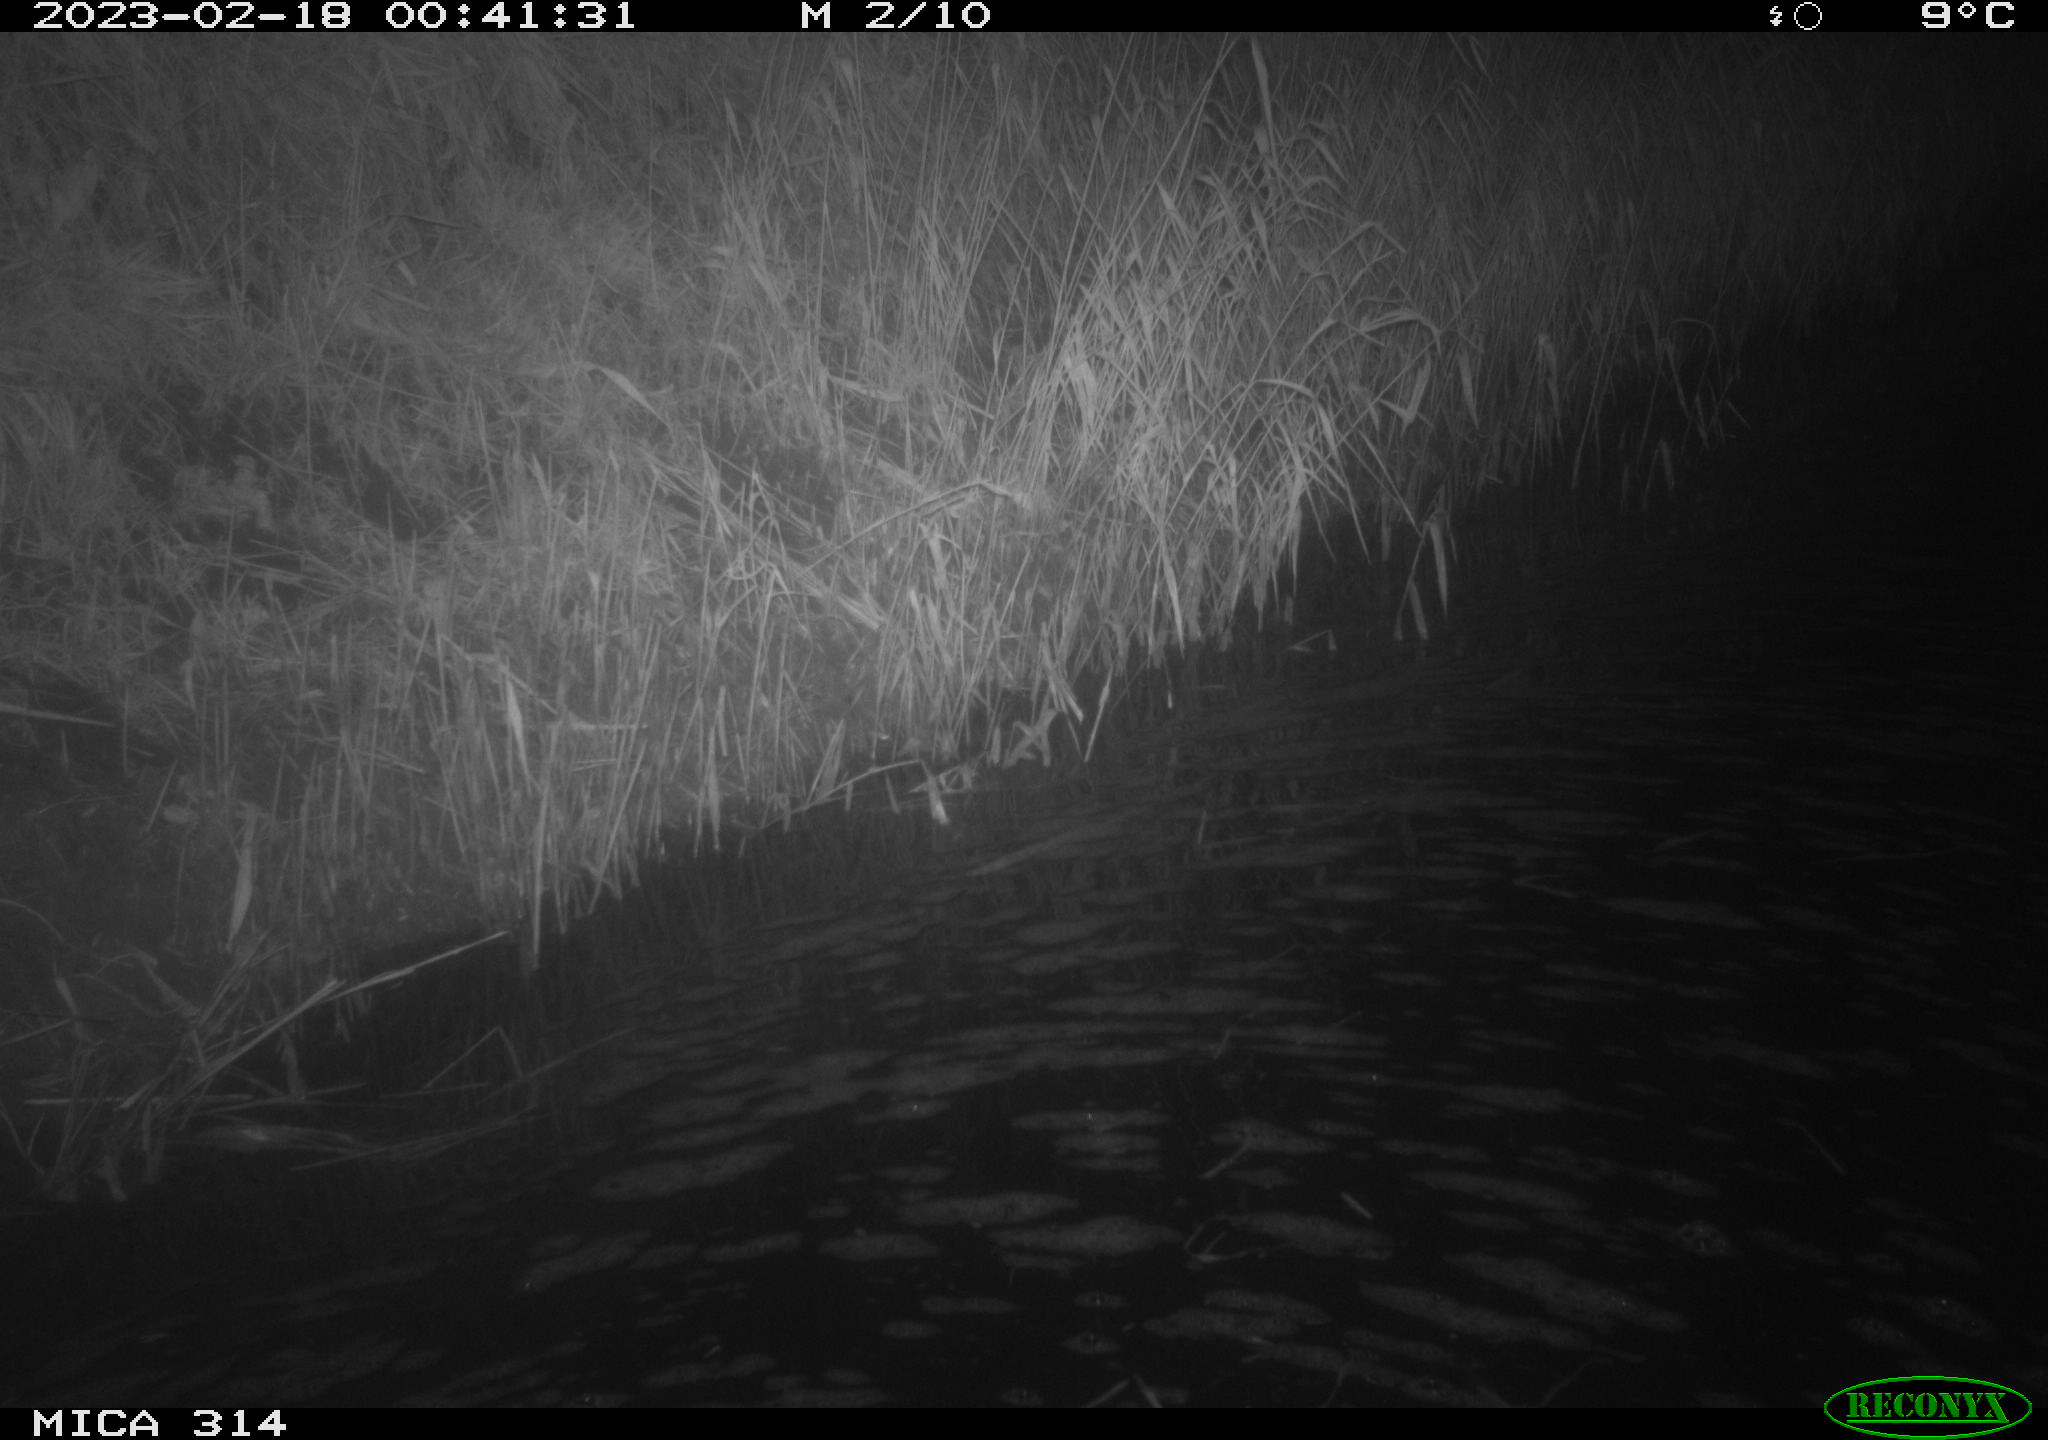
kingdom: Animalia
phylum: Chordata
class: Mammalia
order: Rodentia
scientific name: Rodentia
